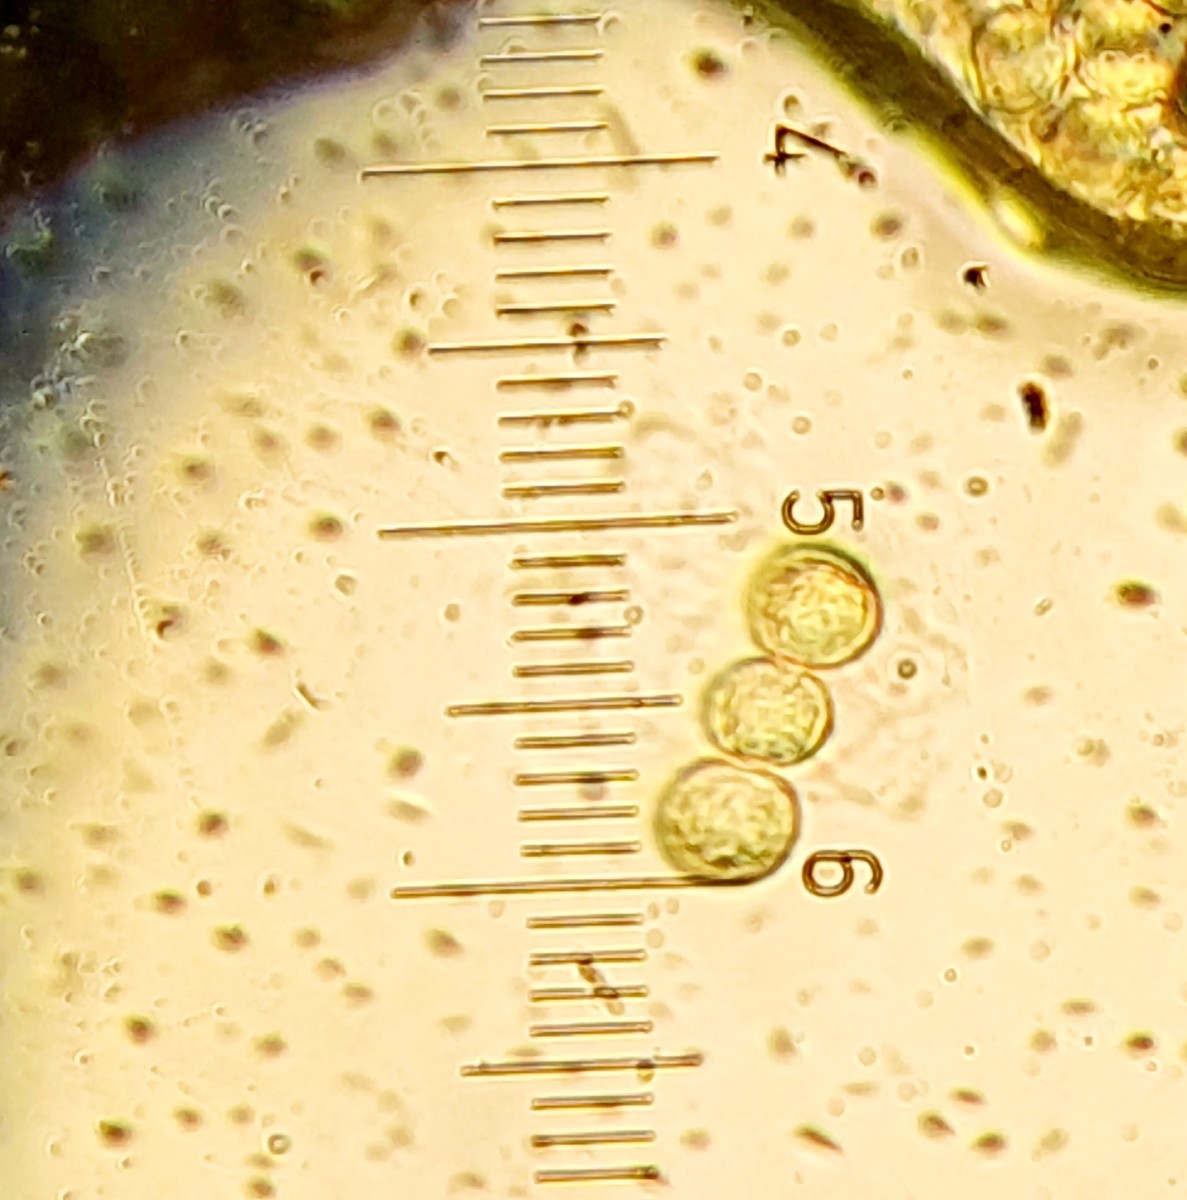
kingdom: Protozoa
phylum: Mycetozoa
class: Myxomycetes
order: Trichiales
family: Trichiaceae
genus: Perichaena
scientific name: Perichaena chrysosperma
